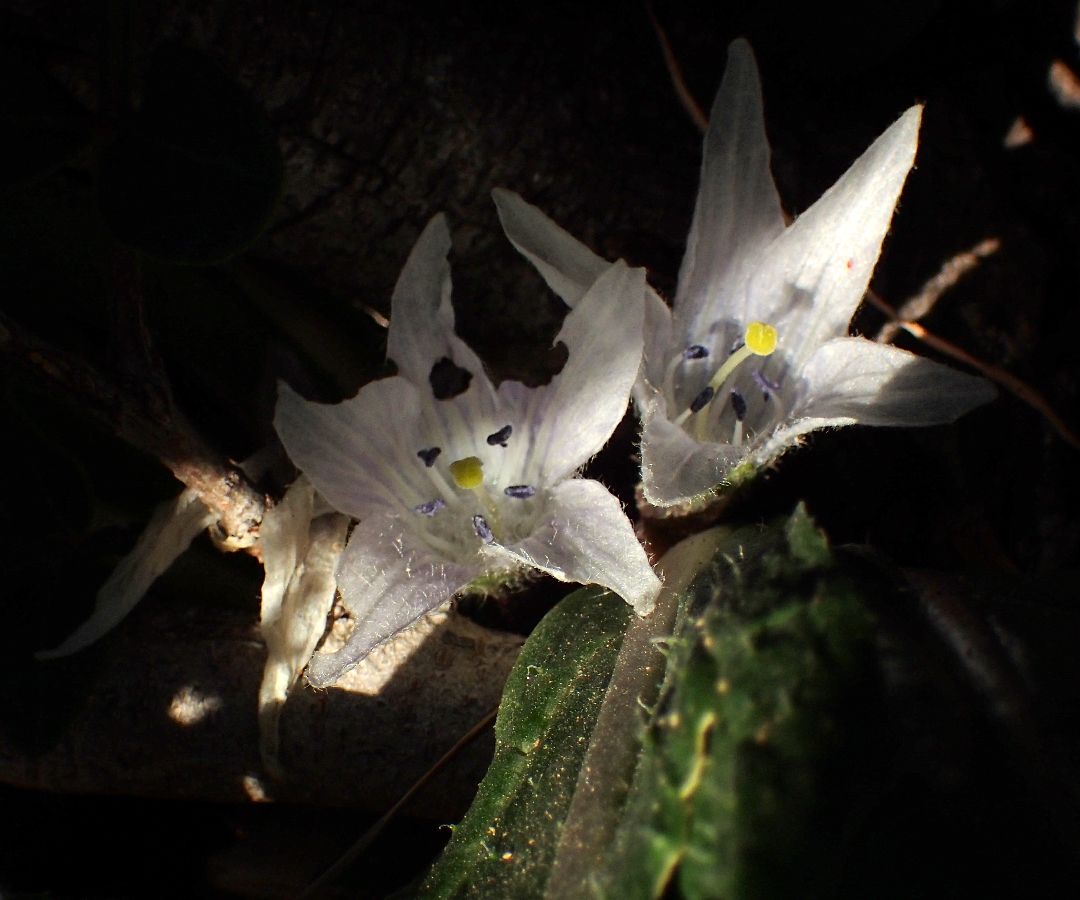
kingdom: Plantae
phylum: Tracheophyta
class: Magnoliopsida
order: Solanales
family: Solanaceae
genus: Mandragora
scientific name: Mandragora officinarum
